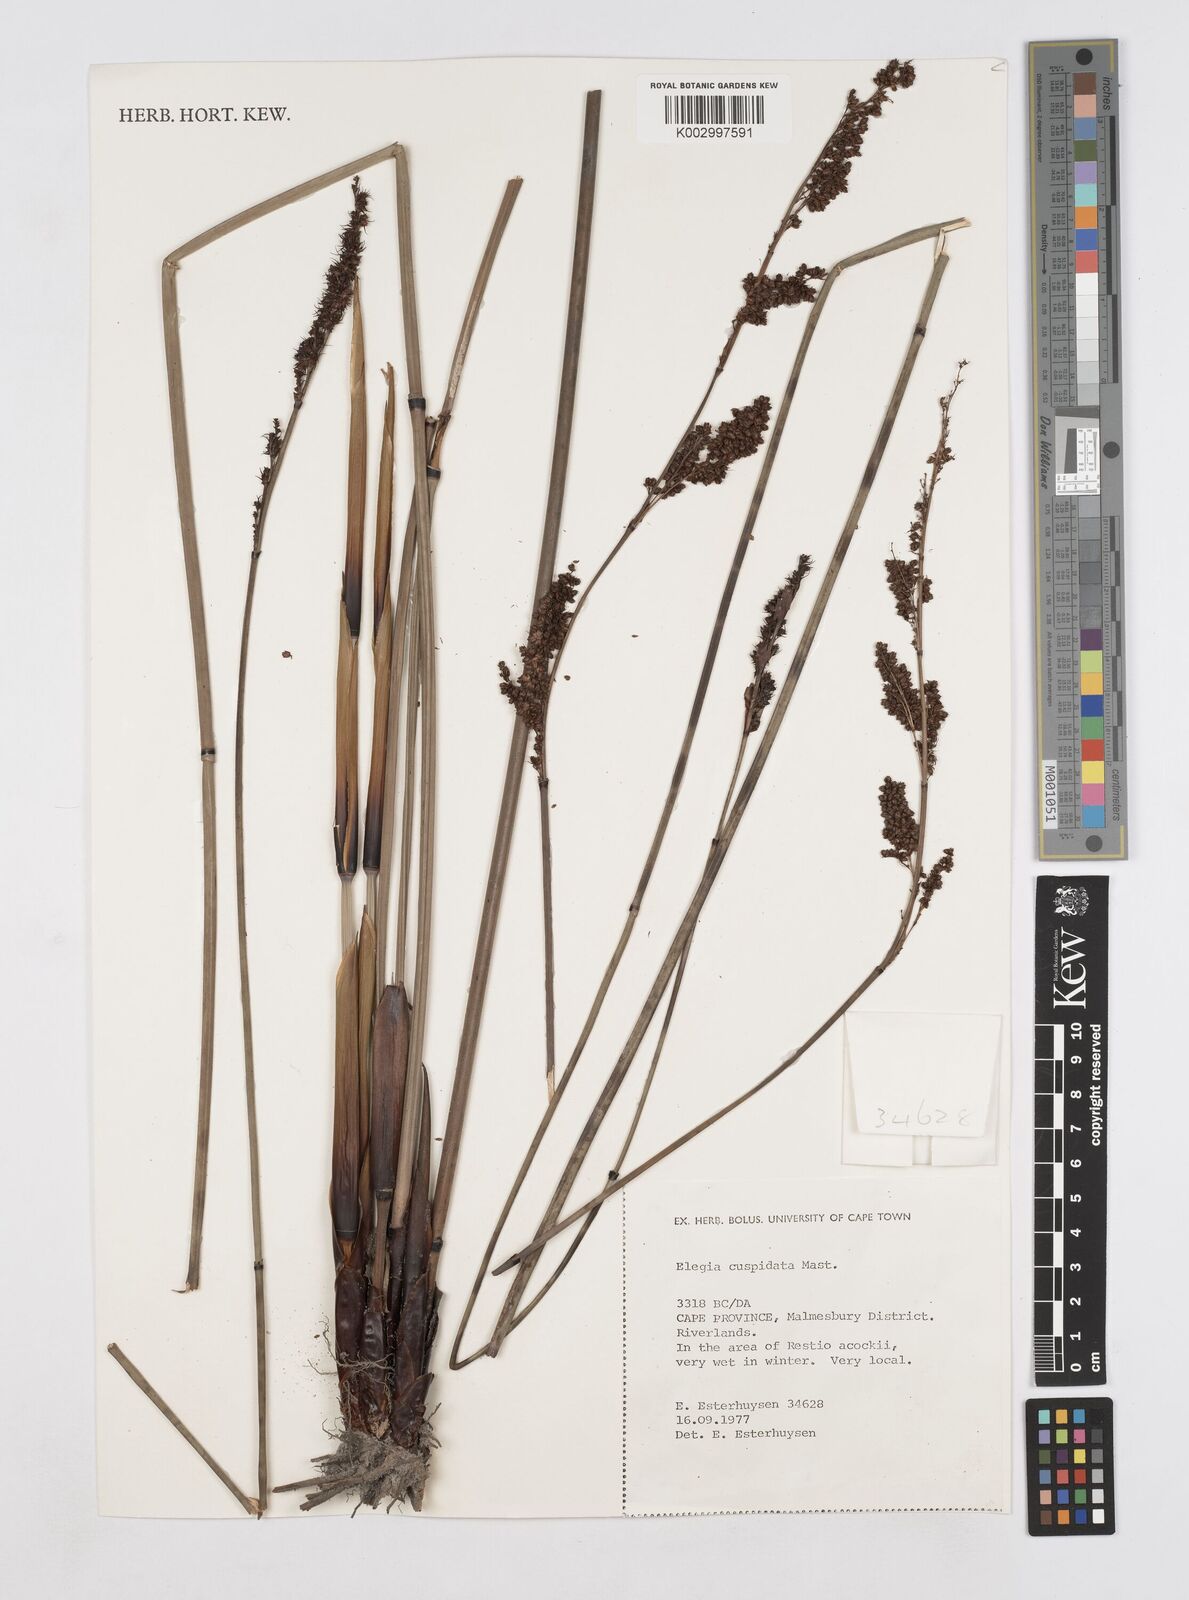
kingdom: Plantae
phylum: Tracheophyta
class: Liliopsida
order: Poales
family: Restionaceae
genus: Elegia
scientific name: Elegia cuspidata
